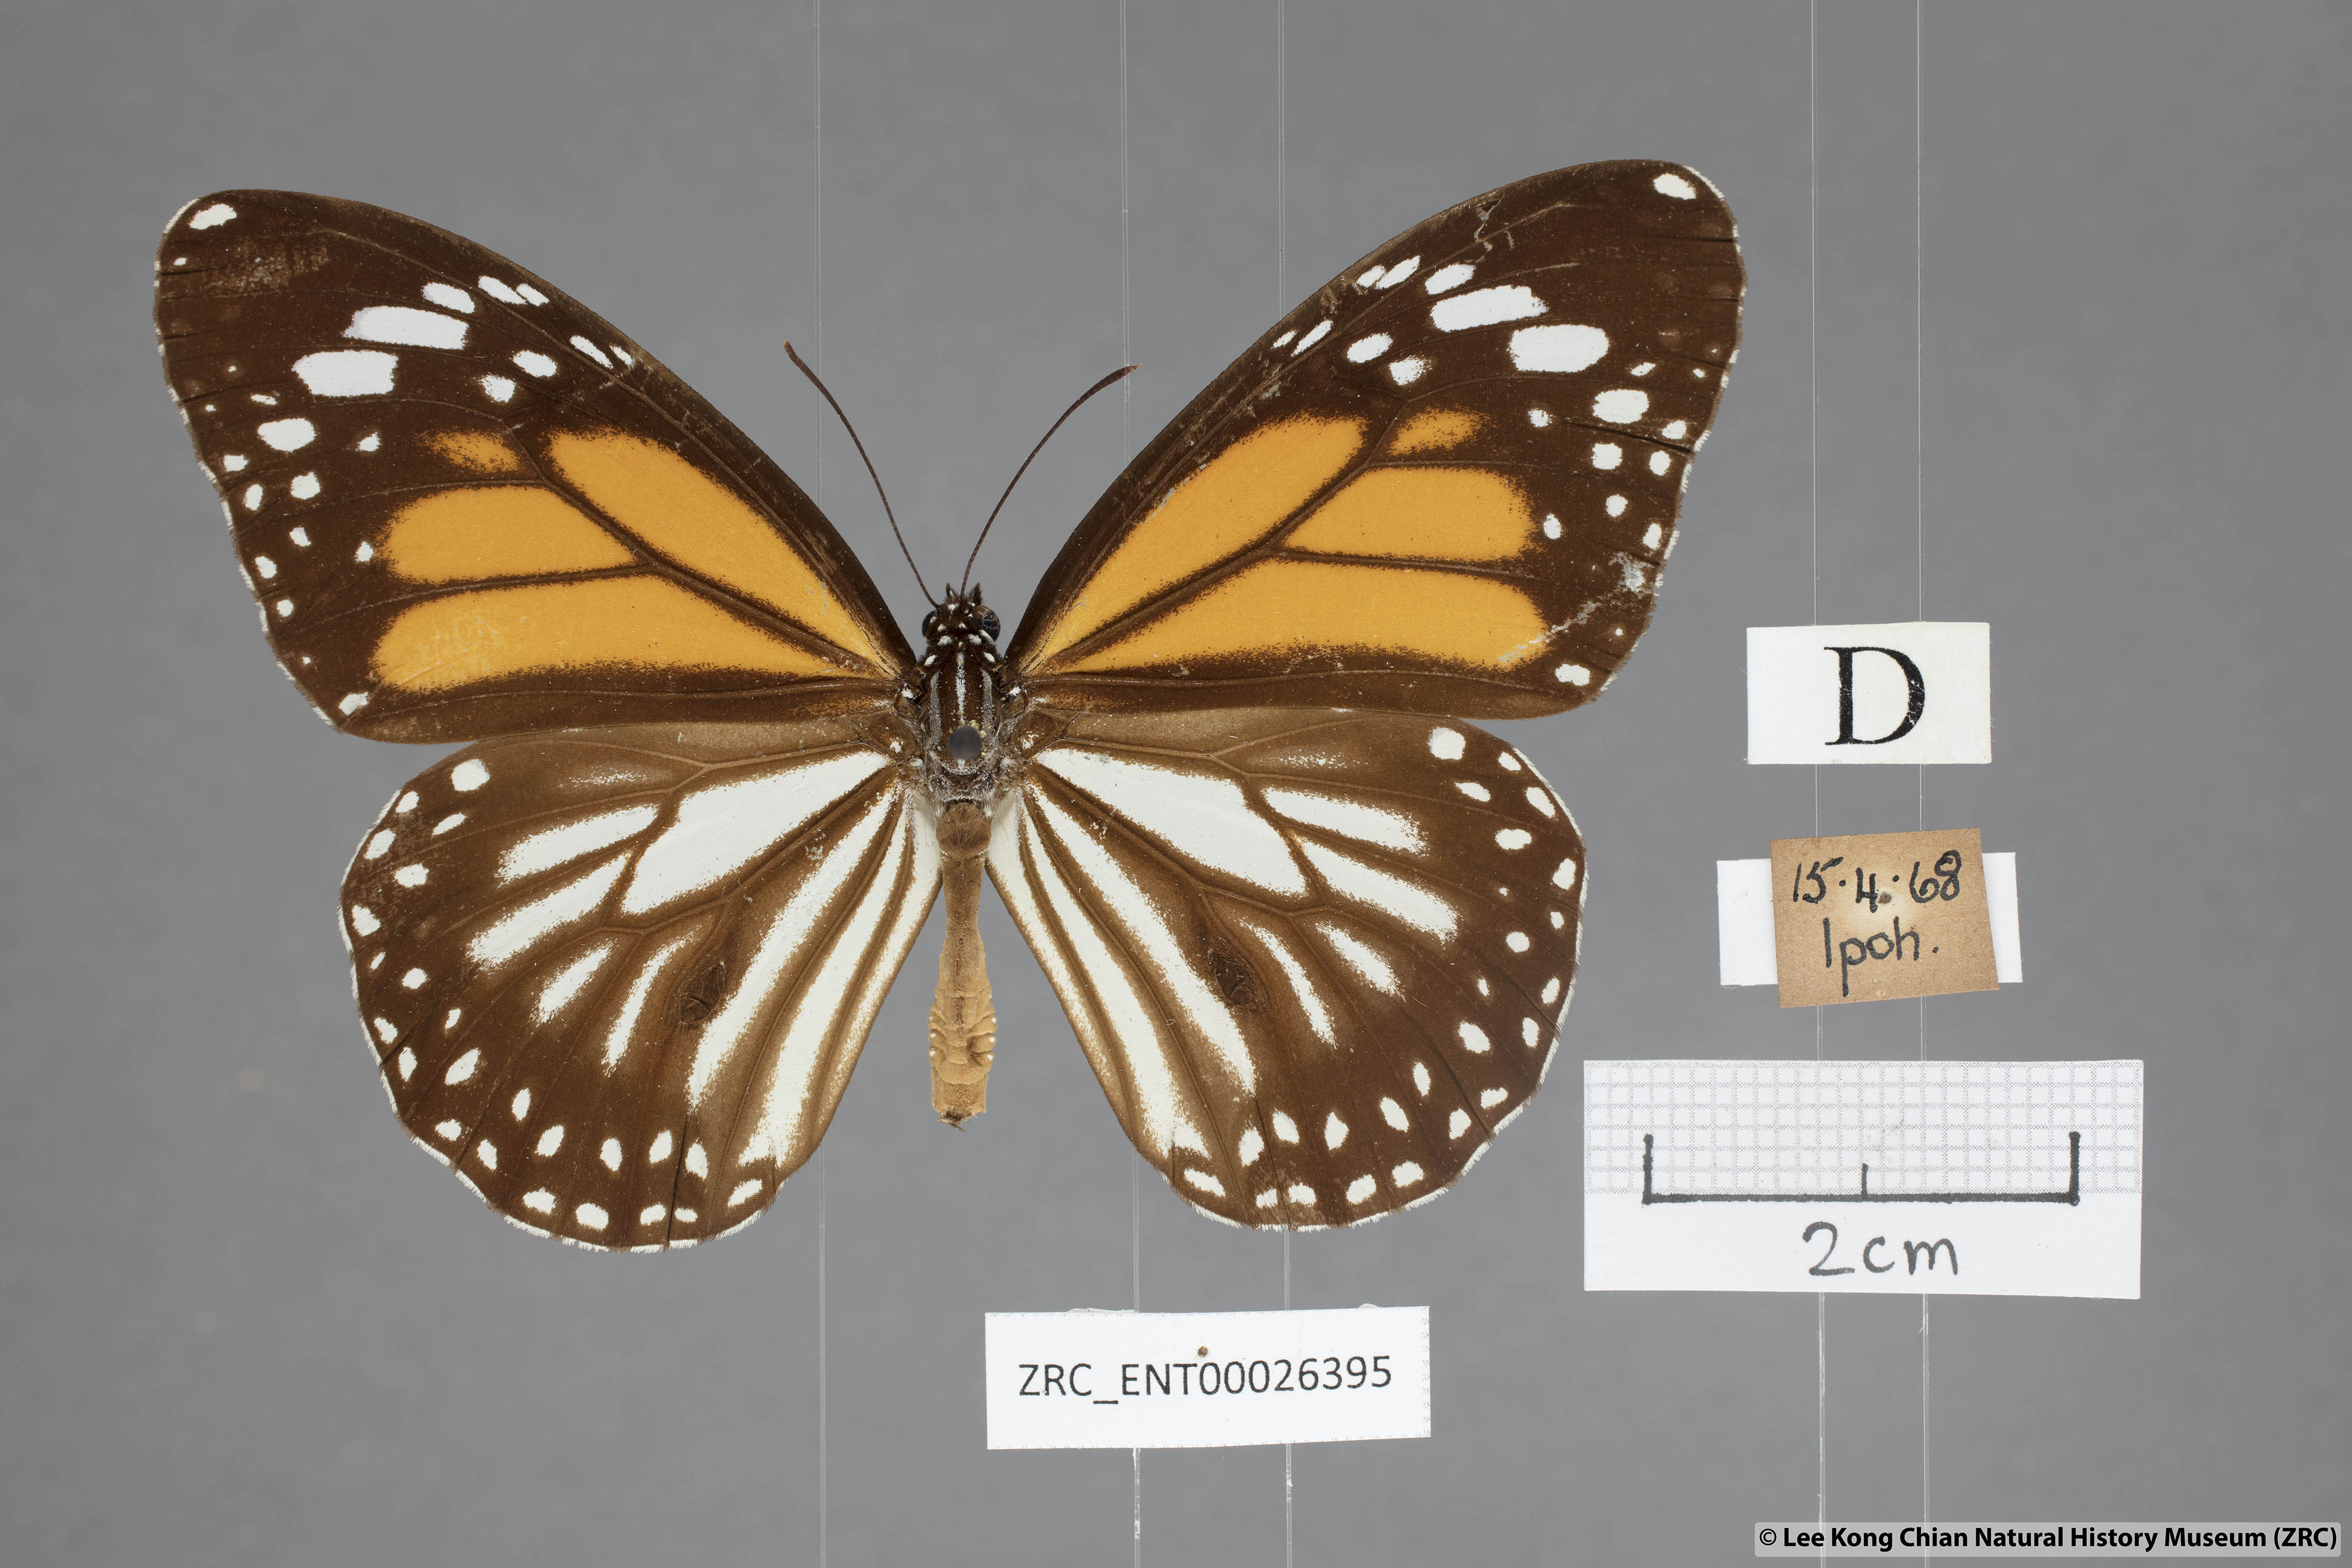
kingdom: Animalia
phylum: Arthropoda
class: Insecta
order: Lepidoptera
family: Nymphalidae
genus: Danaus
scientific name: Danaus melanippus
